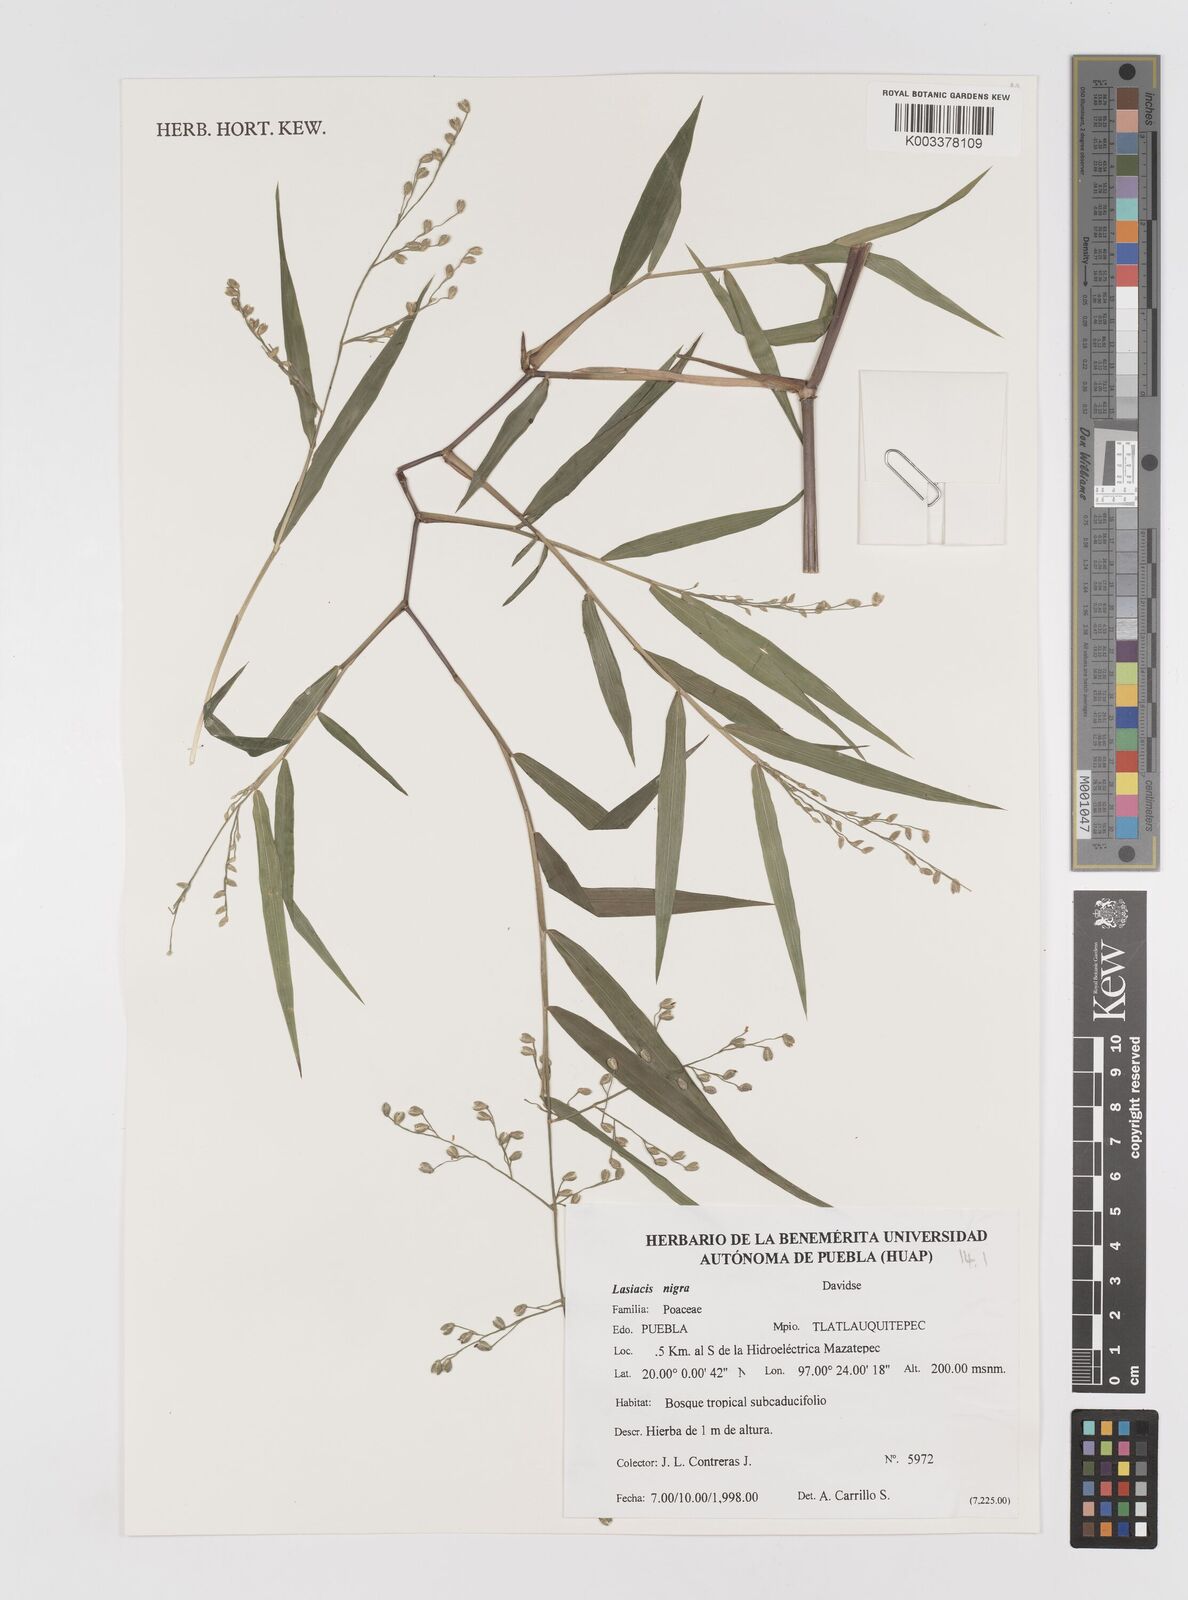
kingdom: Plantae
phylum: Tracheophyta
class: Liliopsida
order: Poales
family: Poaceae
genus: Lasiacis
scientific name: Lasiacis nigra
